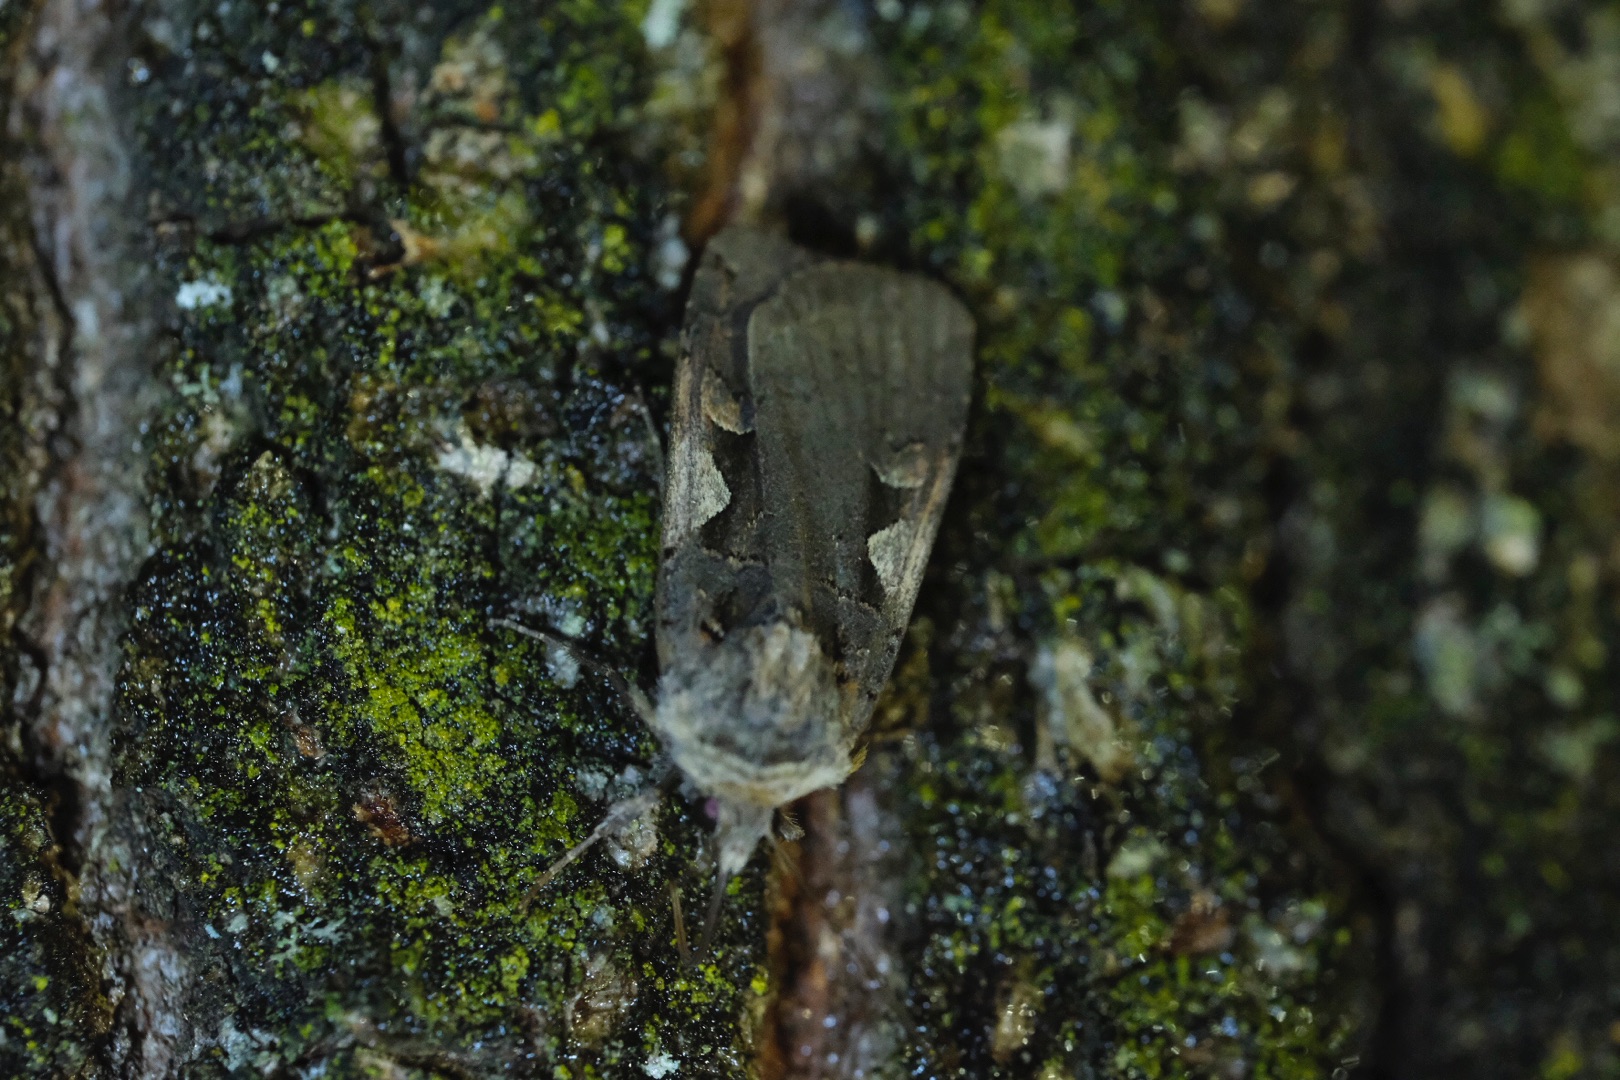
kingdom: Animalia
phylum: Arthropoda
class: Insecta
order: Lepidoptera
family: Noctuidae
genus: Xestia
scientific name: Xestia c-nigrum
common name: Det sorte c
